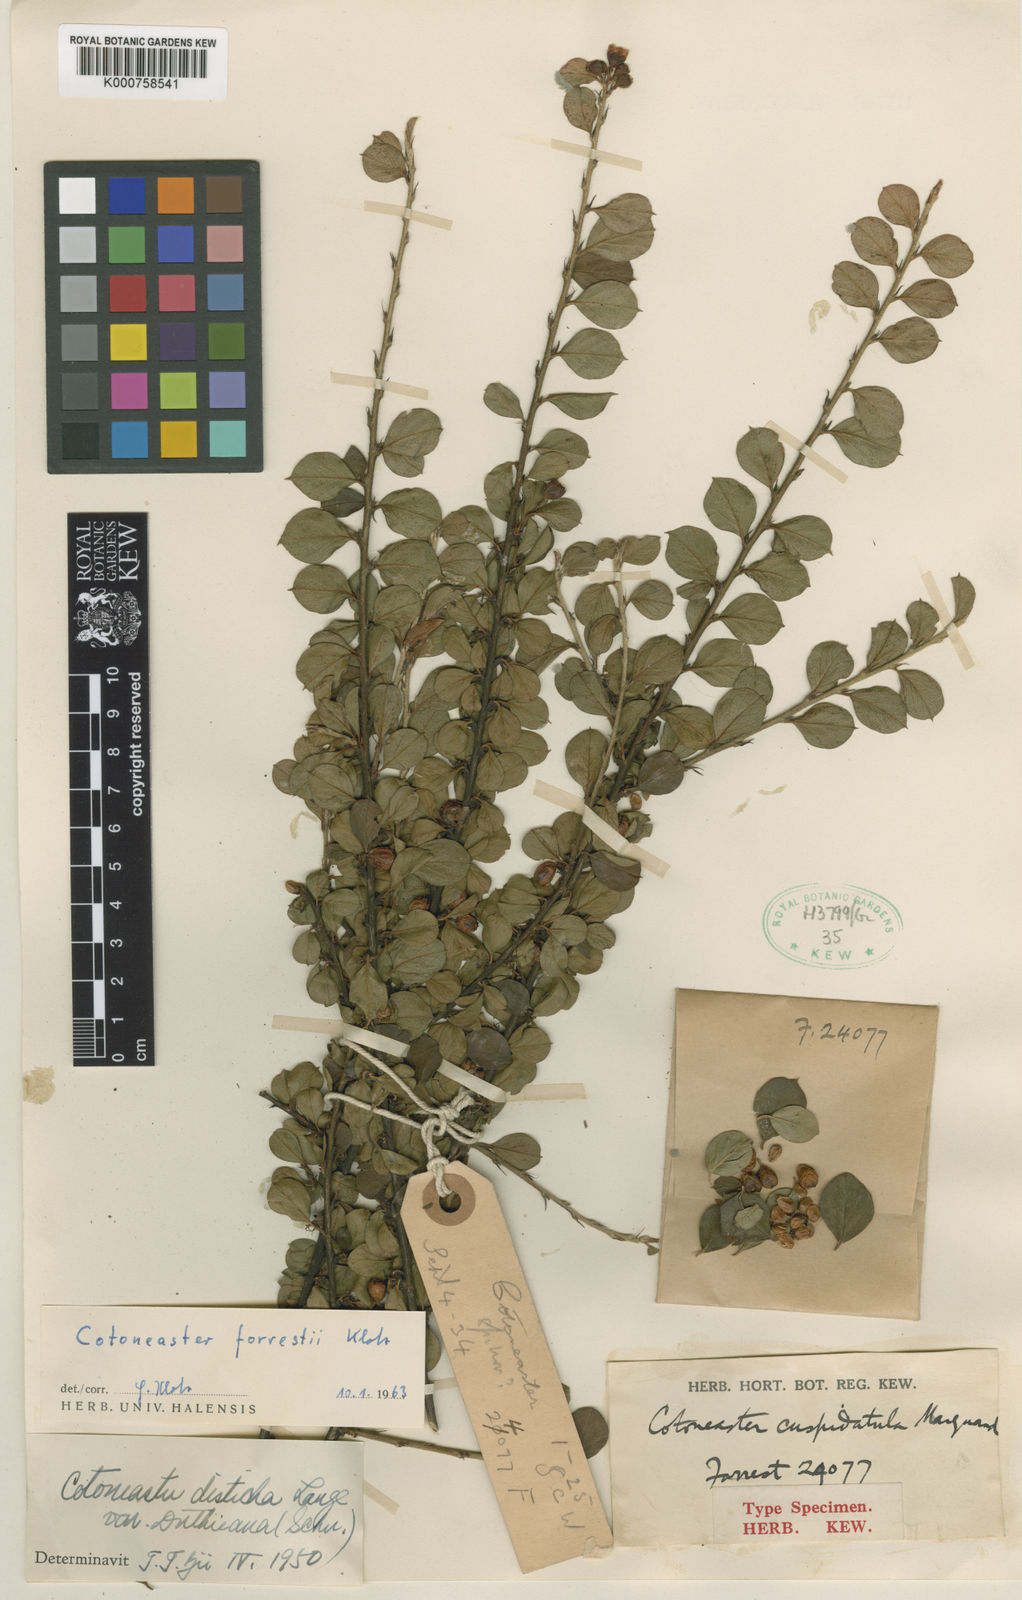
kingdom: Plantae
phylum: Tracheophyta
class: Magnoliopsida
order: Rosales
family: Rosaceae
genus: Cotoneaster
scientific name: Cotoneaster rotundifolius
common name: Round-leaved cotoneaster
